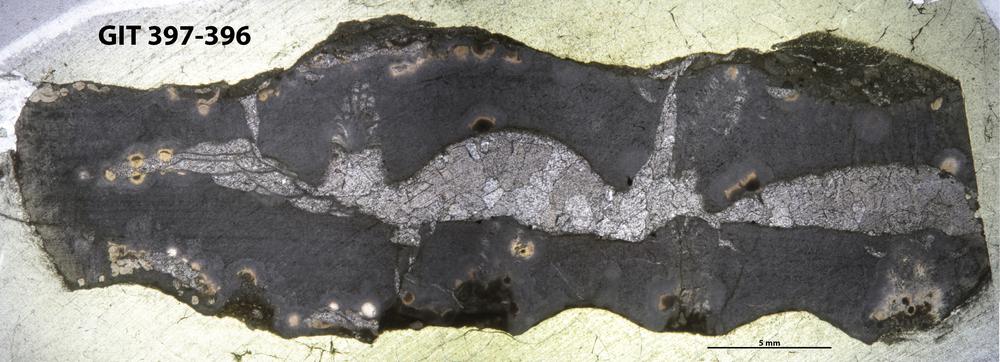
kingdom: Animalia
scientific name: Animalia
